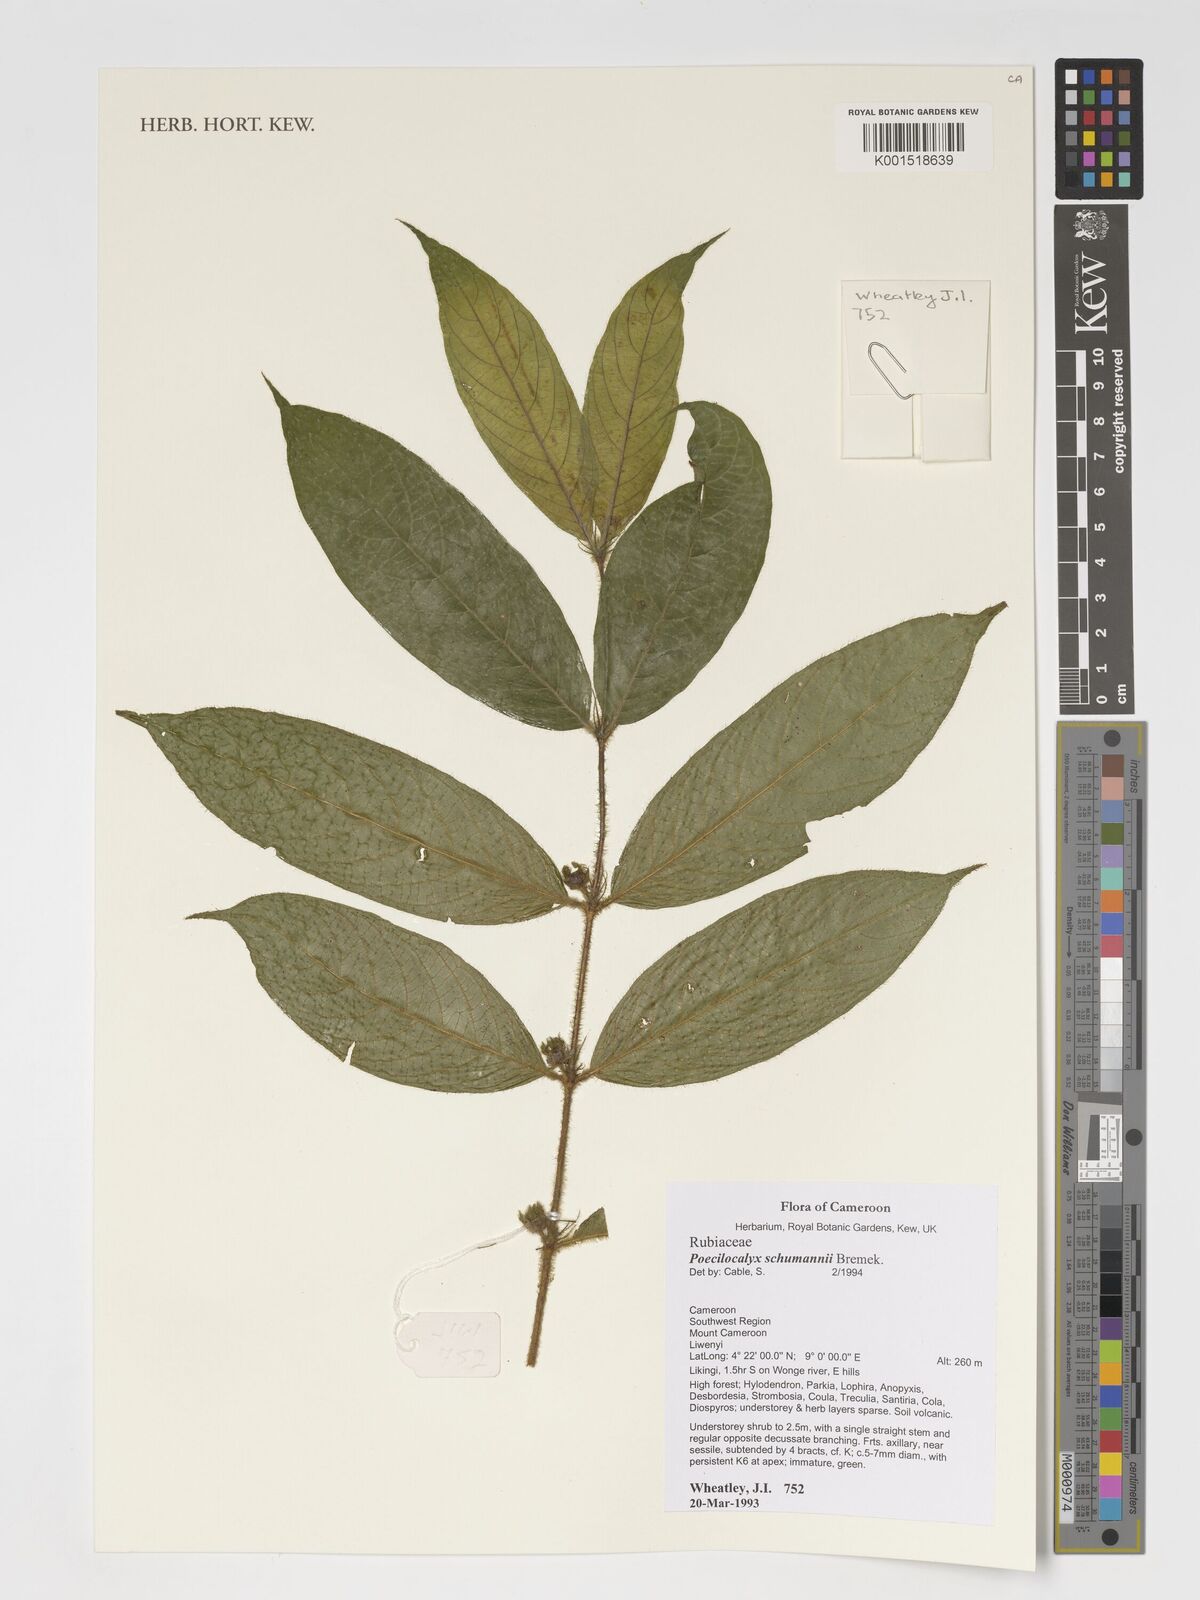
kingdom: Plantae
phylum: Tracheophyta
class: Magnoliopsida
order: Gentianales
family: Rubiaceae
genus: Pauridiantha
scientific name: Pauridiantha schumannii
